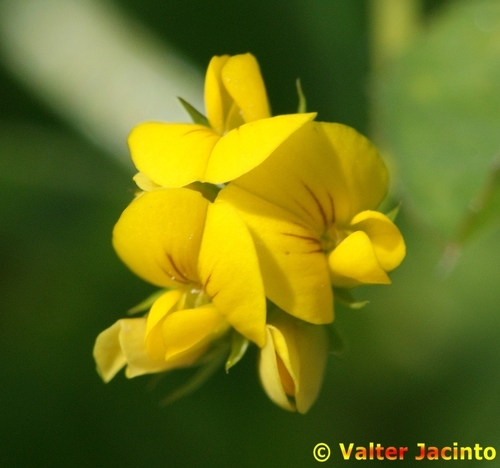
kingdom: Plantae
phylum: Tracheophyta
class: Magnoliopsida
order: Fabales
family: Fabaceae
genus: Medicago
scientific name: Medicago polymorpha
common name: Burclover
